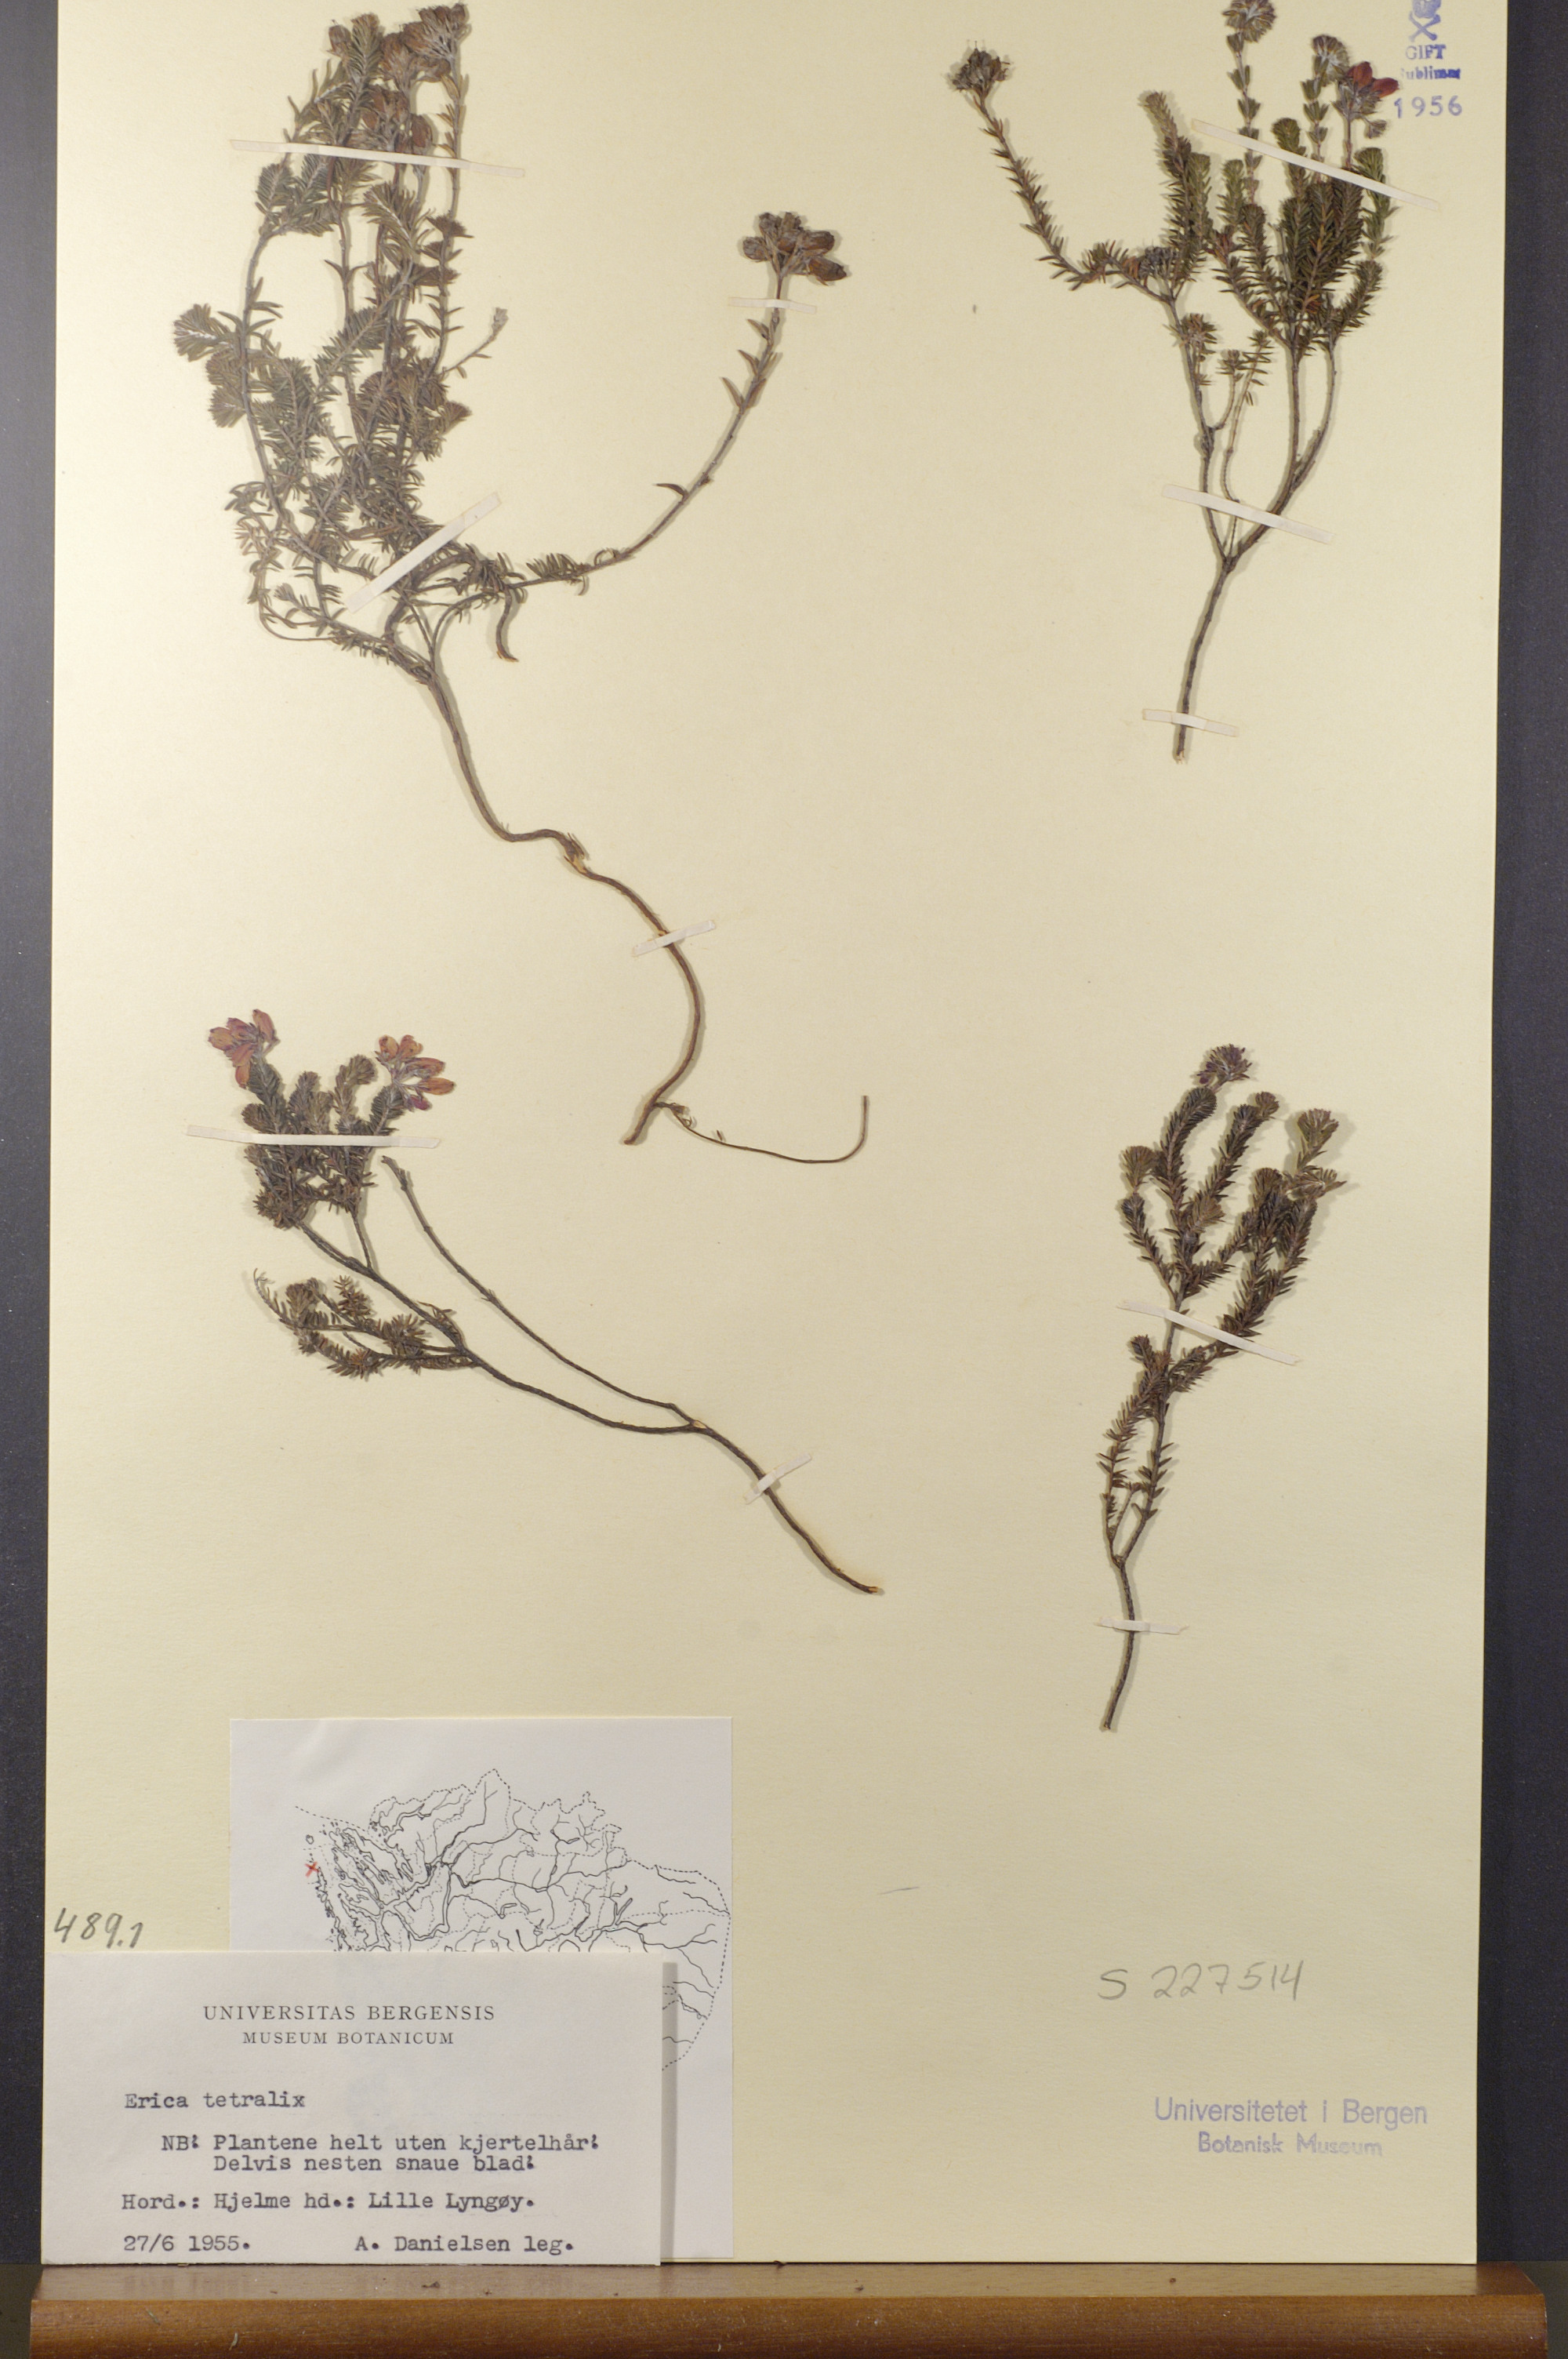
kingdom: Plantae
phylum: Tracheophyta
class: Magnoliopsida
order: Ericales
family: Ericaceae
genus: Erica
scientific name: Erica tetralix
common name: Cross-leaved heath
